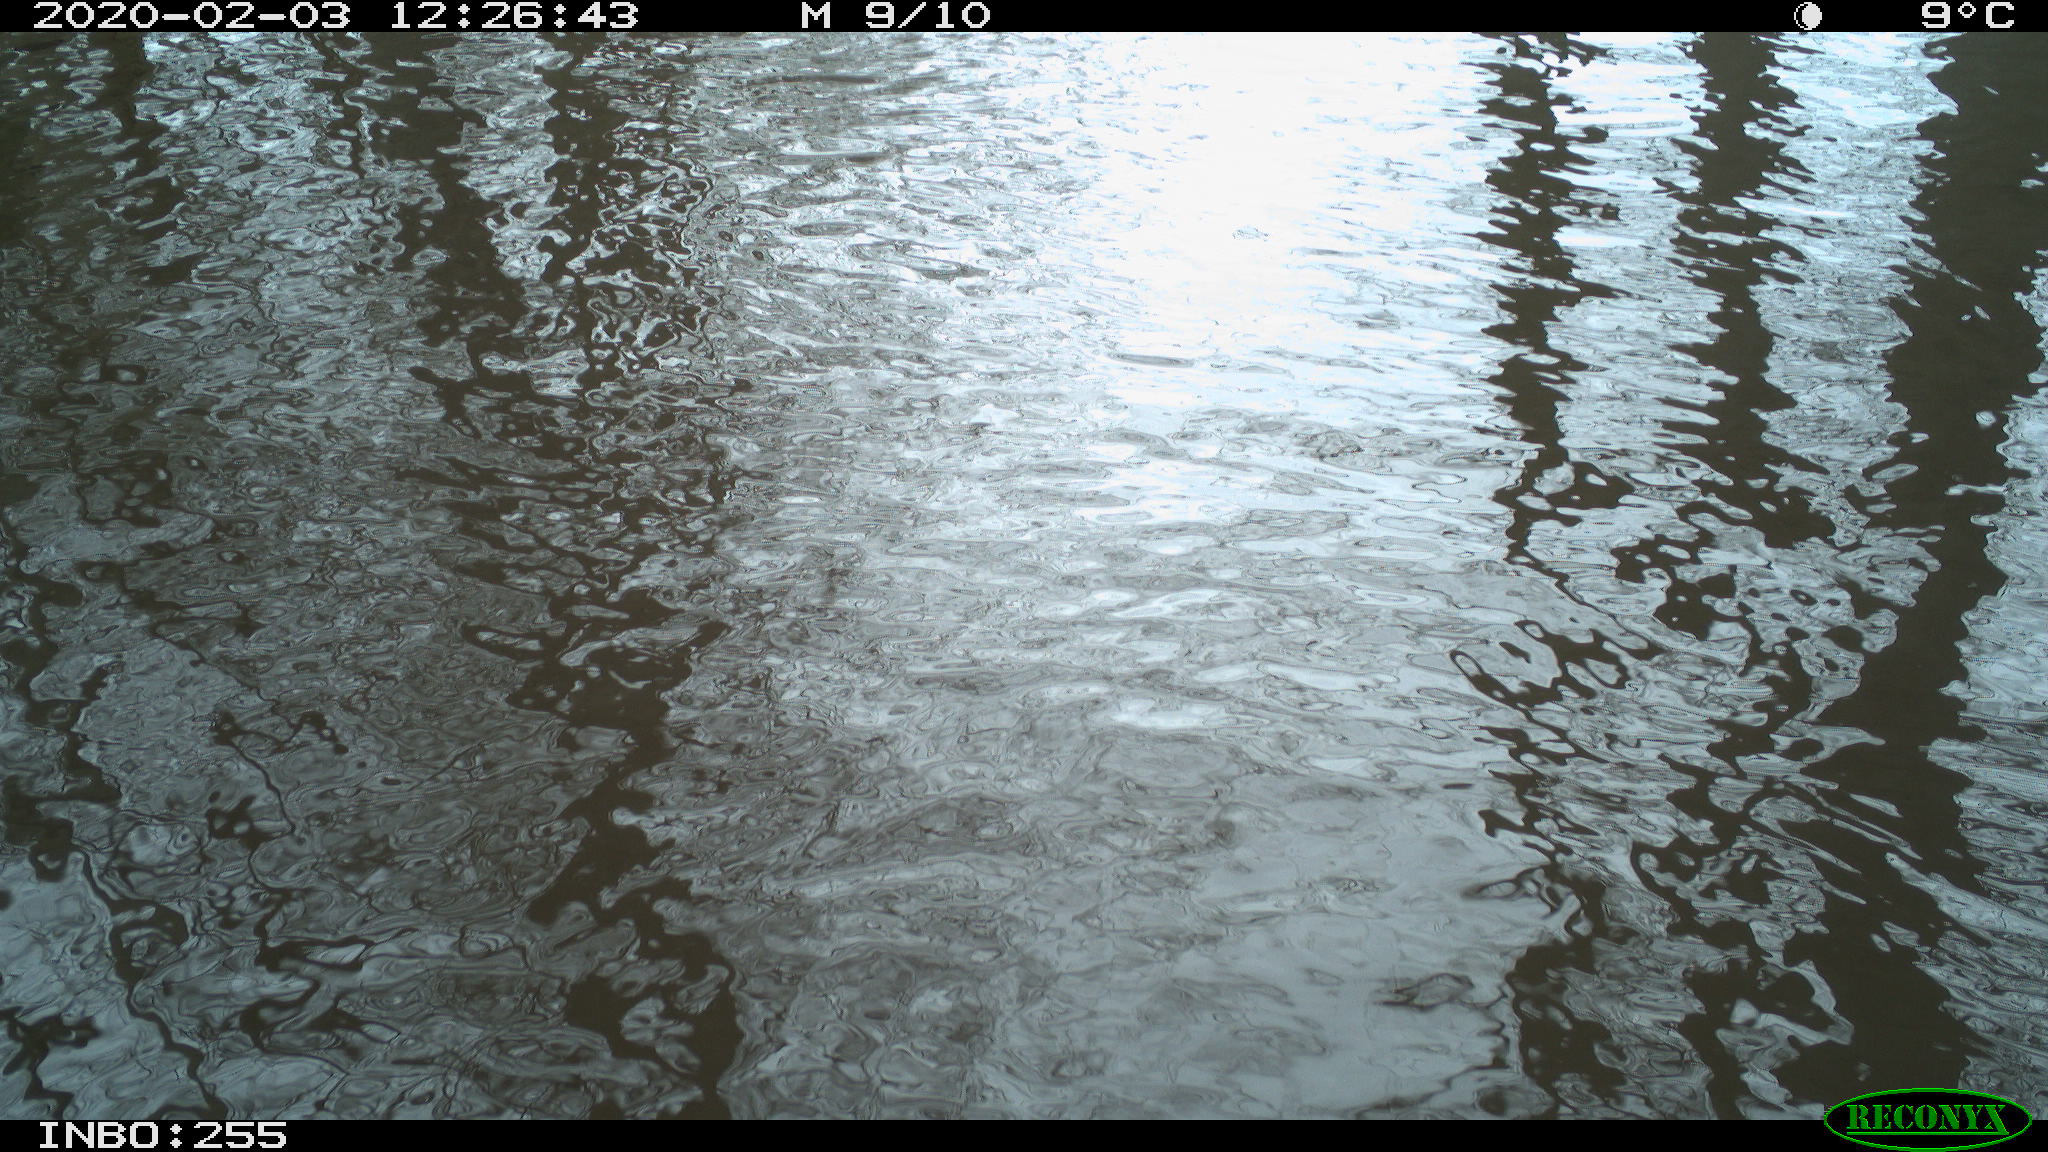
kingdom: Animalia
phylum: Chordata
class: Aves
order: Gruiformes
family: Rallidae
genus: Fulica
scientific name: Fulica atra
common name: Eurasian coot
